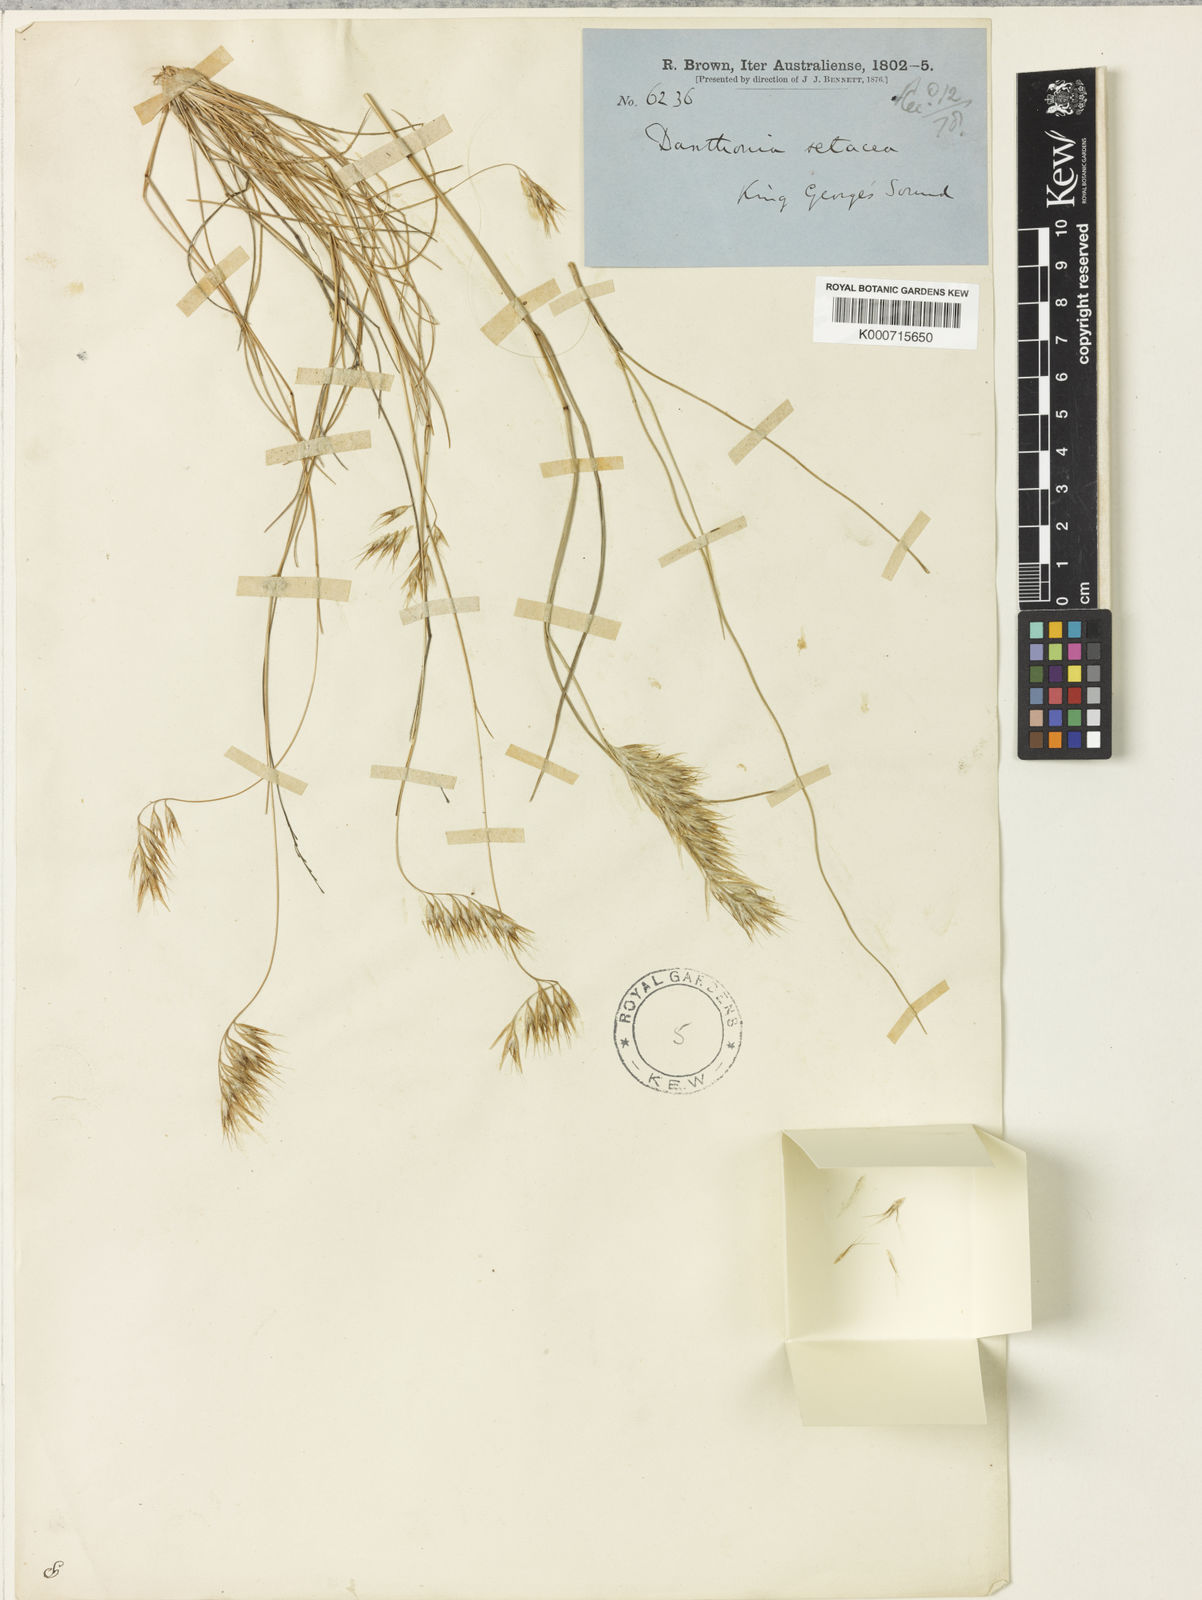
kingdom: Plantae
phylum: Tracheophyta
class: Liliopsida
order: Poales
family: Poaceae
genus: Rytidosperma
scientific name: Rytidosperma setaceum
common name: Small-flower wallaby grass
